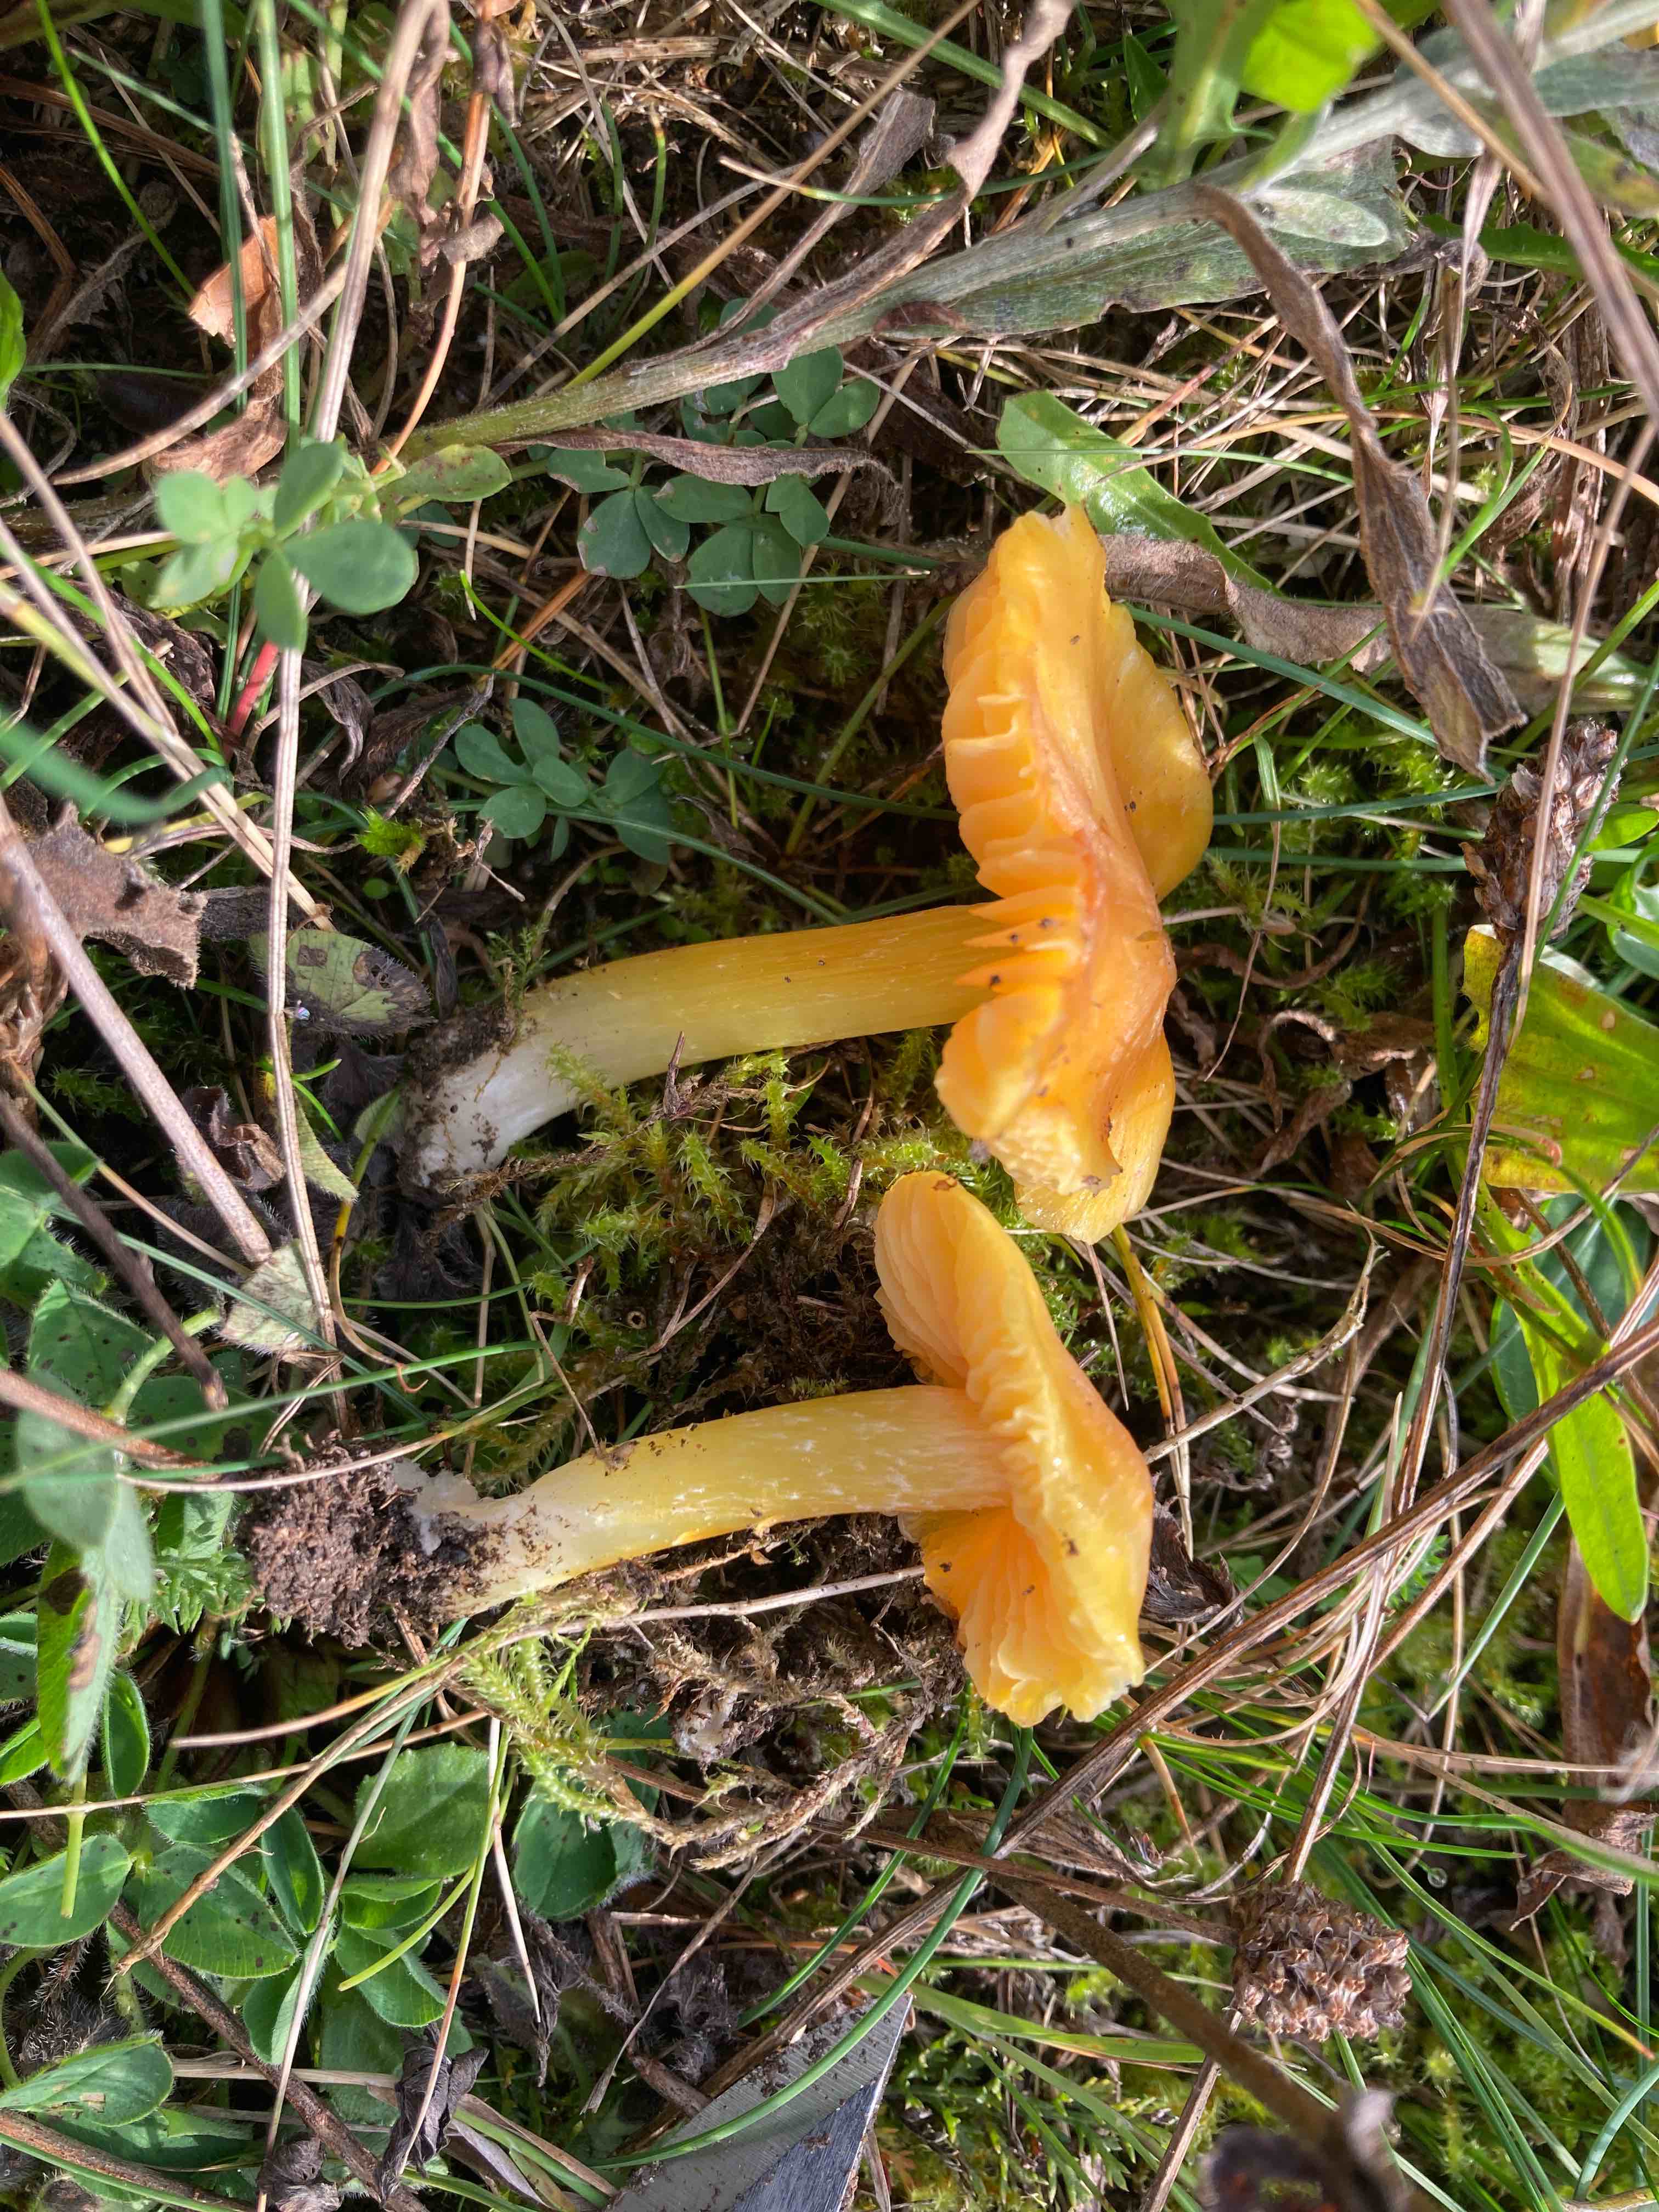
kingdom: Fungi
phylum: Basidiomycota
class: Agaricomycetes
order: Agaricales
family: Hygrophoraceae
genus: Hygrocybe
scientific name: Hygrocybe chlorophana
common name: gul vokshat
